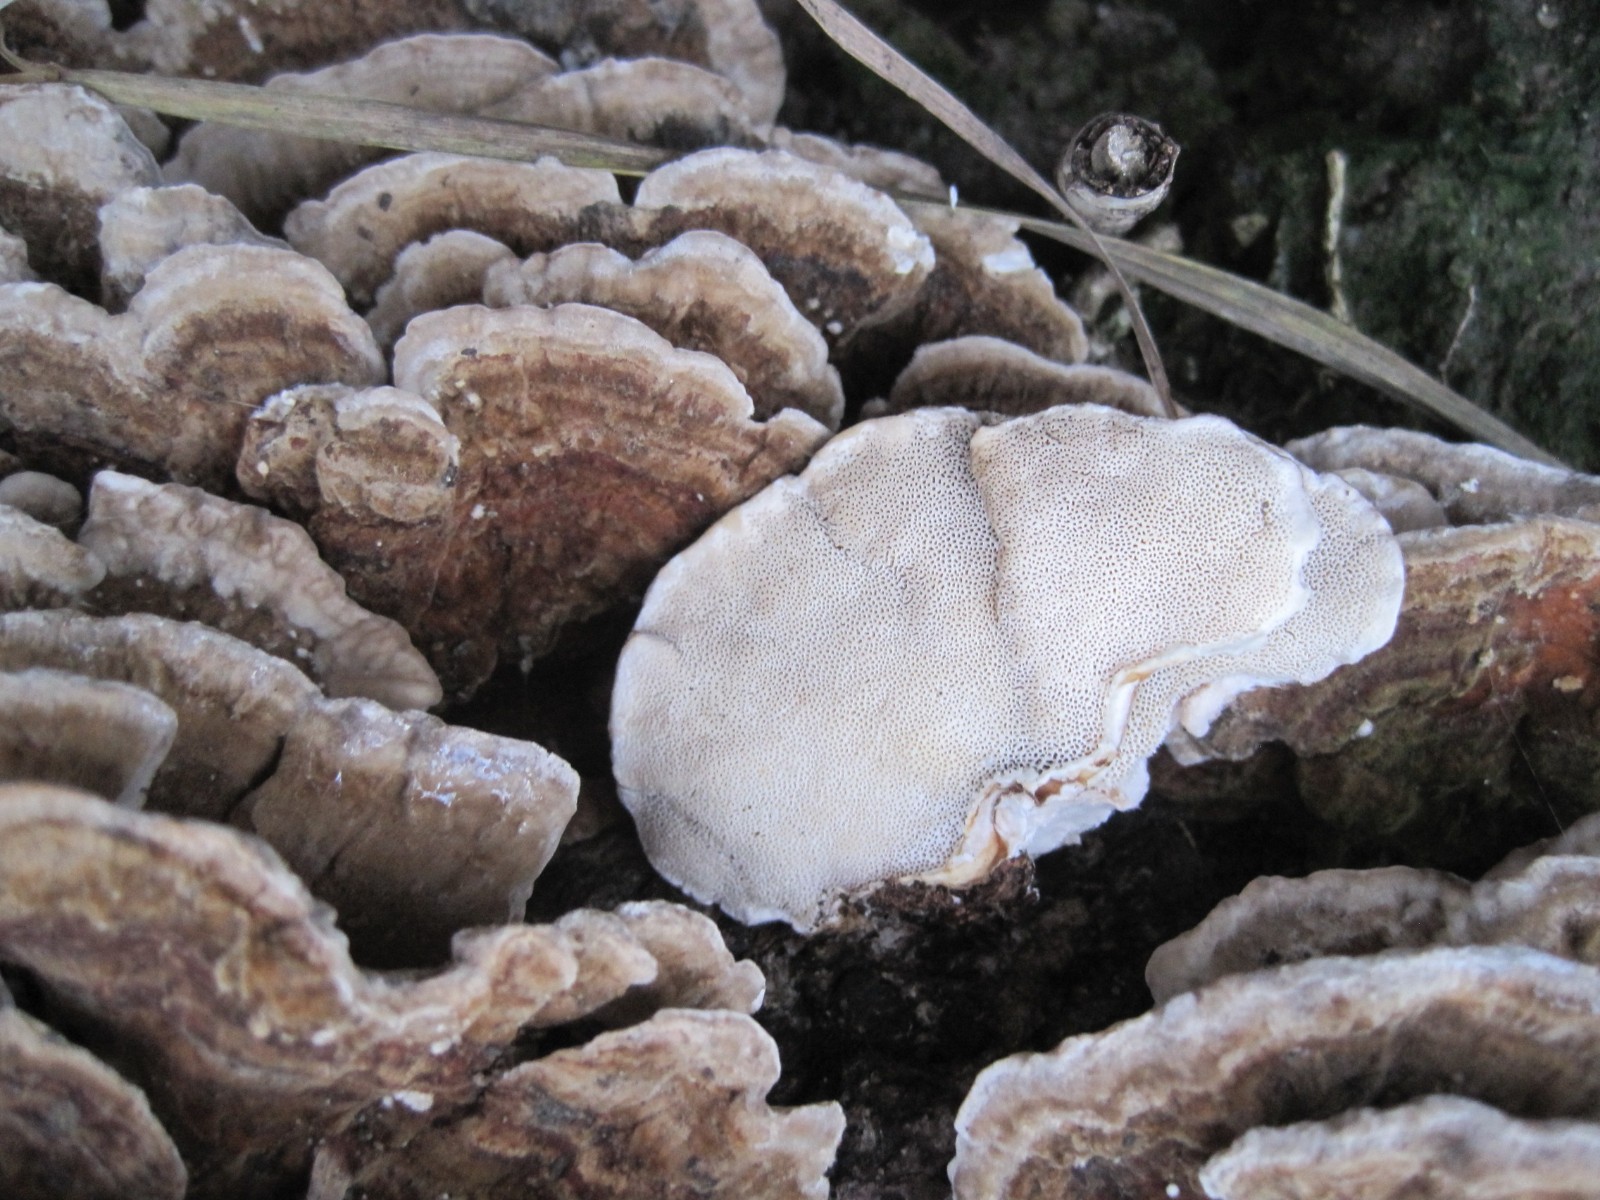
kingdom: Fungi
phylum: Basidiomycota
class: Agaricomycetes
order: Polyporales
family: Polyporaceae
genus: Trametes
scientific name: Trametes versicolor
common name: broget læderporesvamp
